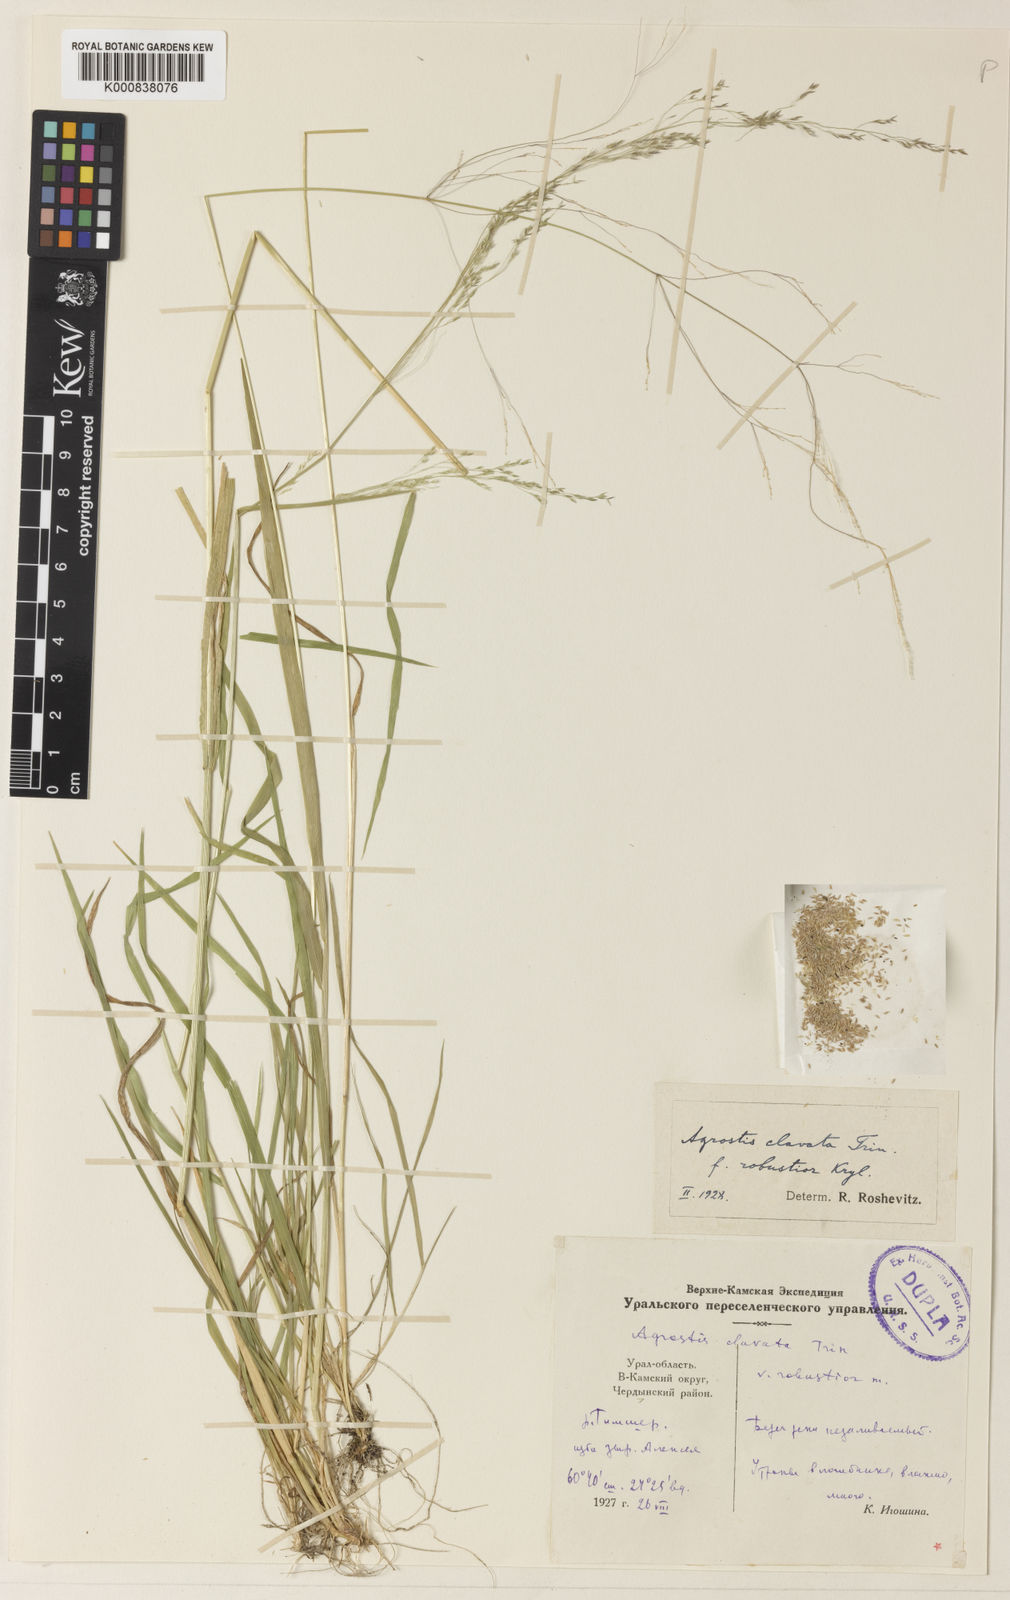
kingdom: Plantae
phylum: Tracheophyta
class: Liliopsida
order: Poales
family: Poaceae
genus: Agrostis
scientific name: Agrostis clavata
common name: Clavate bent
